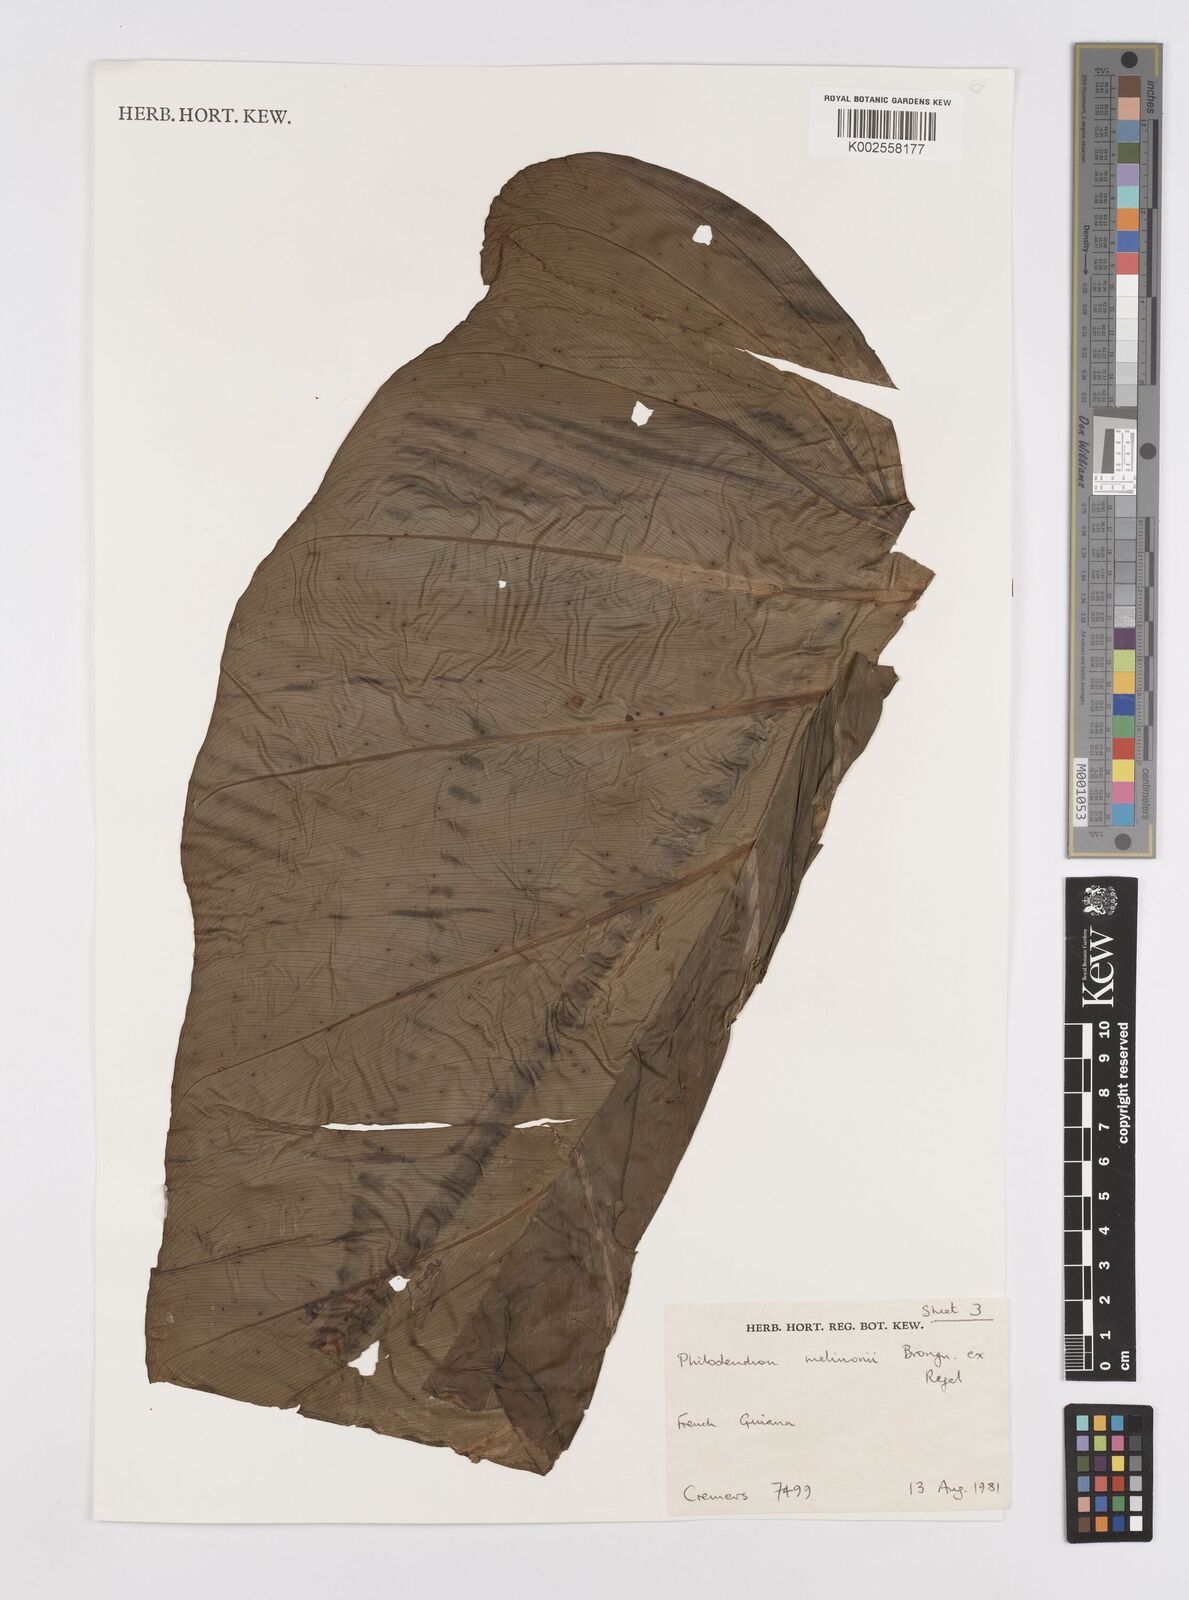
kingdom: Plantae
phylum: Tracheophyta
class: Liliopsida
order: Alismatales
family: Araceae
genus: Philodendron
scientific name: Philodendron melinonii
